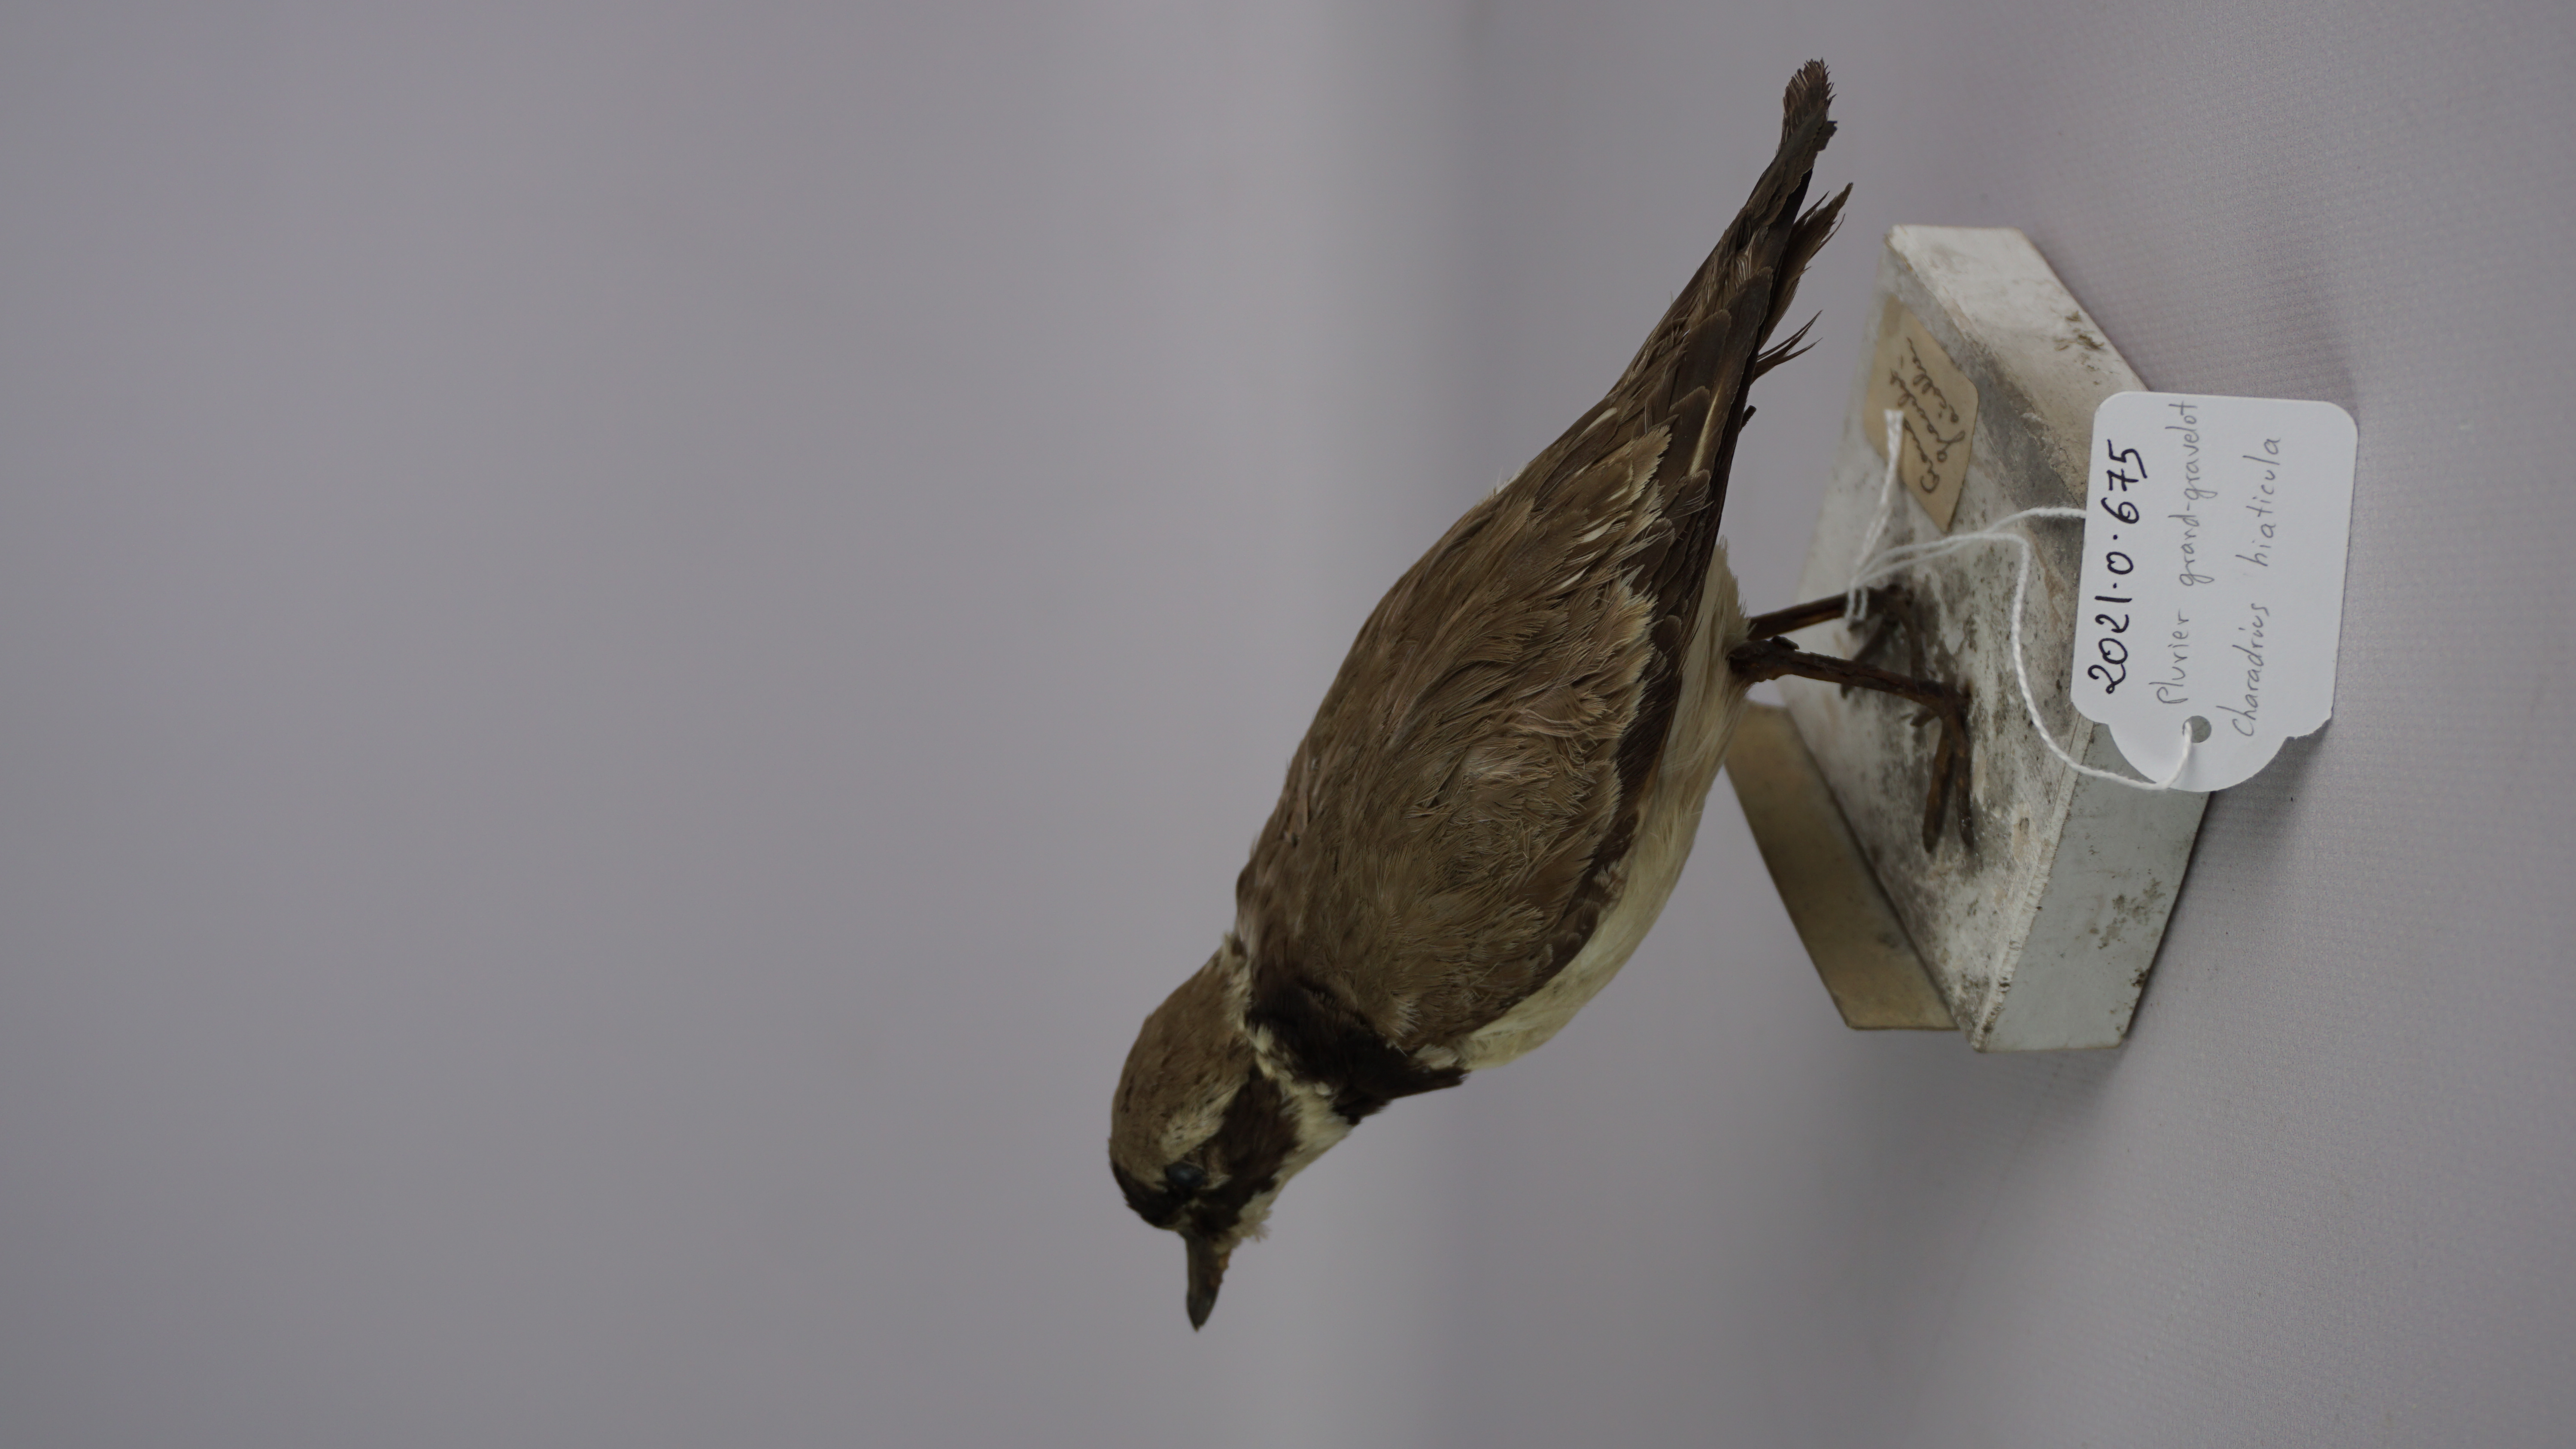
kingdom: Animalia
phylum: Chordata
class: Aves
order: Charadriiformes
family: Charadriidae
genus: Charadrius
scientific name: Charadrius hiaticula
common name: Common ringed plover
